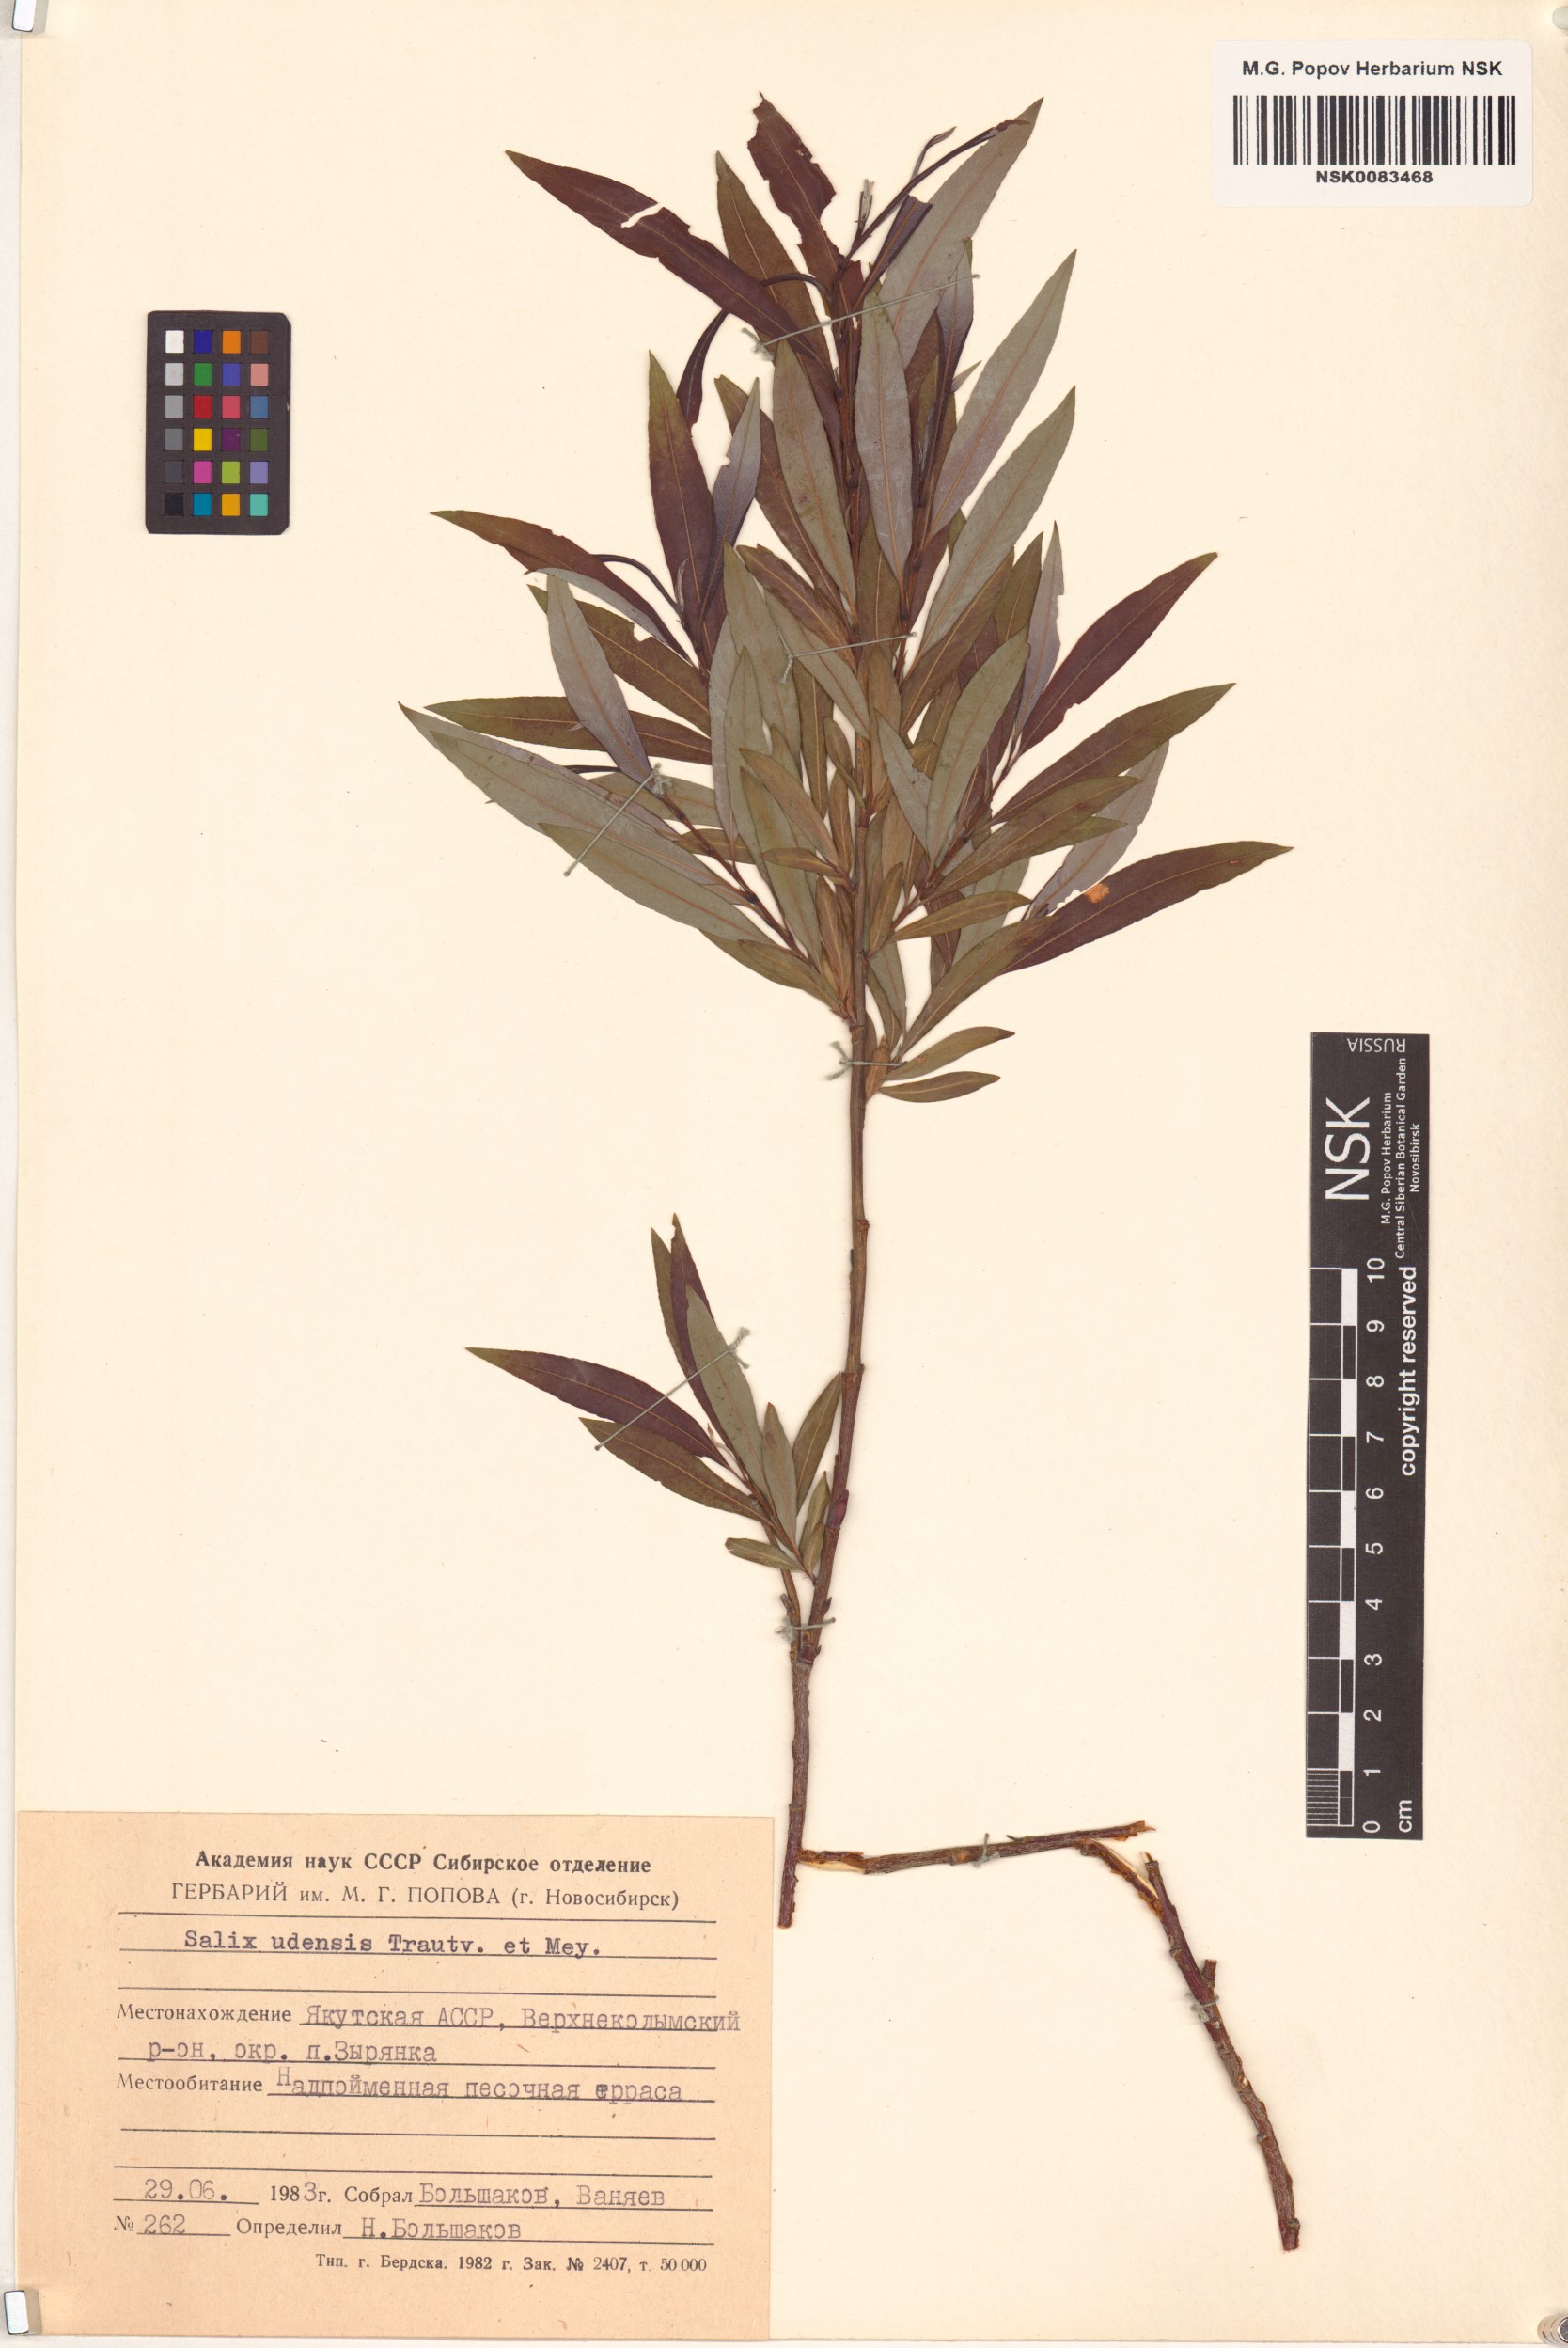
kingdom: Plantae
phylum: Tracheophyta
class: Magnoliopsida
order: Malpighiales
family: Salicaceae
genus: Salix
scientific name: Salix udensis
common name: Sachalin willow
